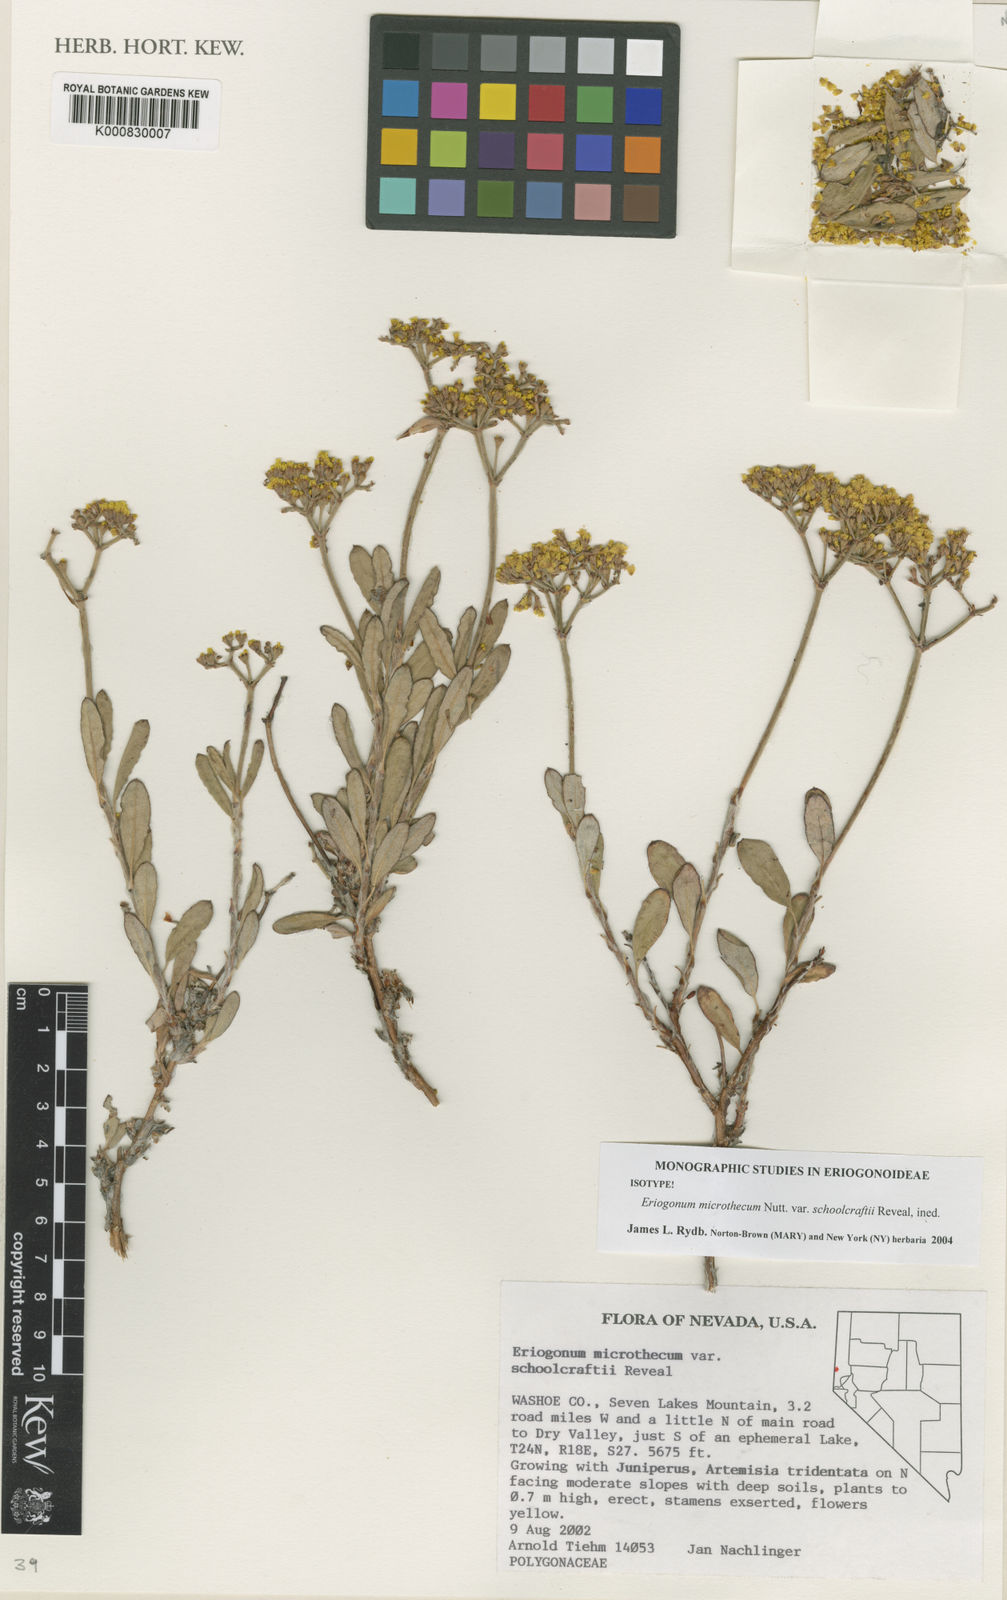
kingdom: Plantae
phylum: Tracheophyta
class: Magnoliopsida
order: Caryophyllales
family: Polygonaceae
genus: Eriogonum
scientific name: Eriogonum microtheca
